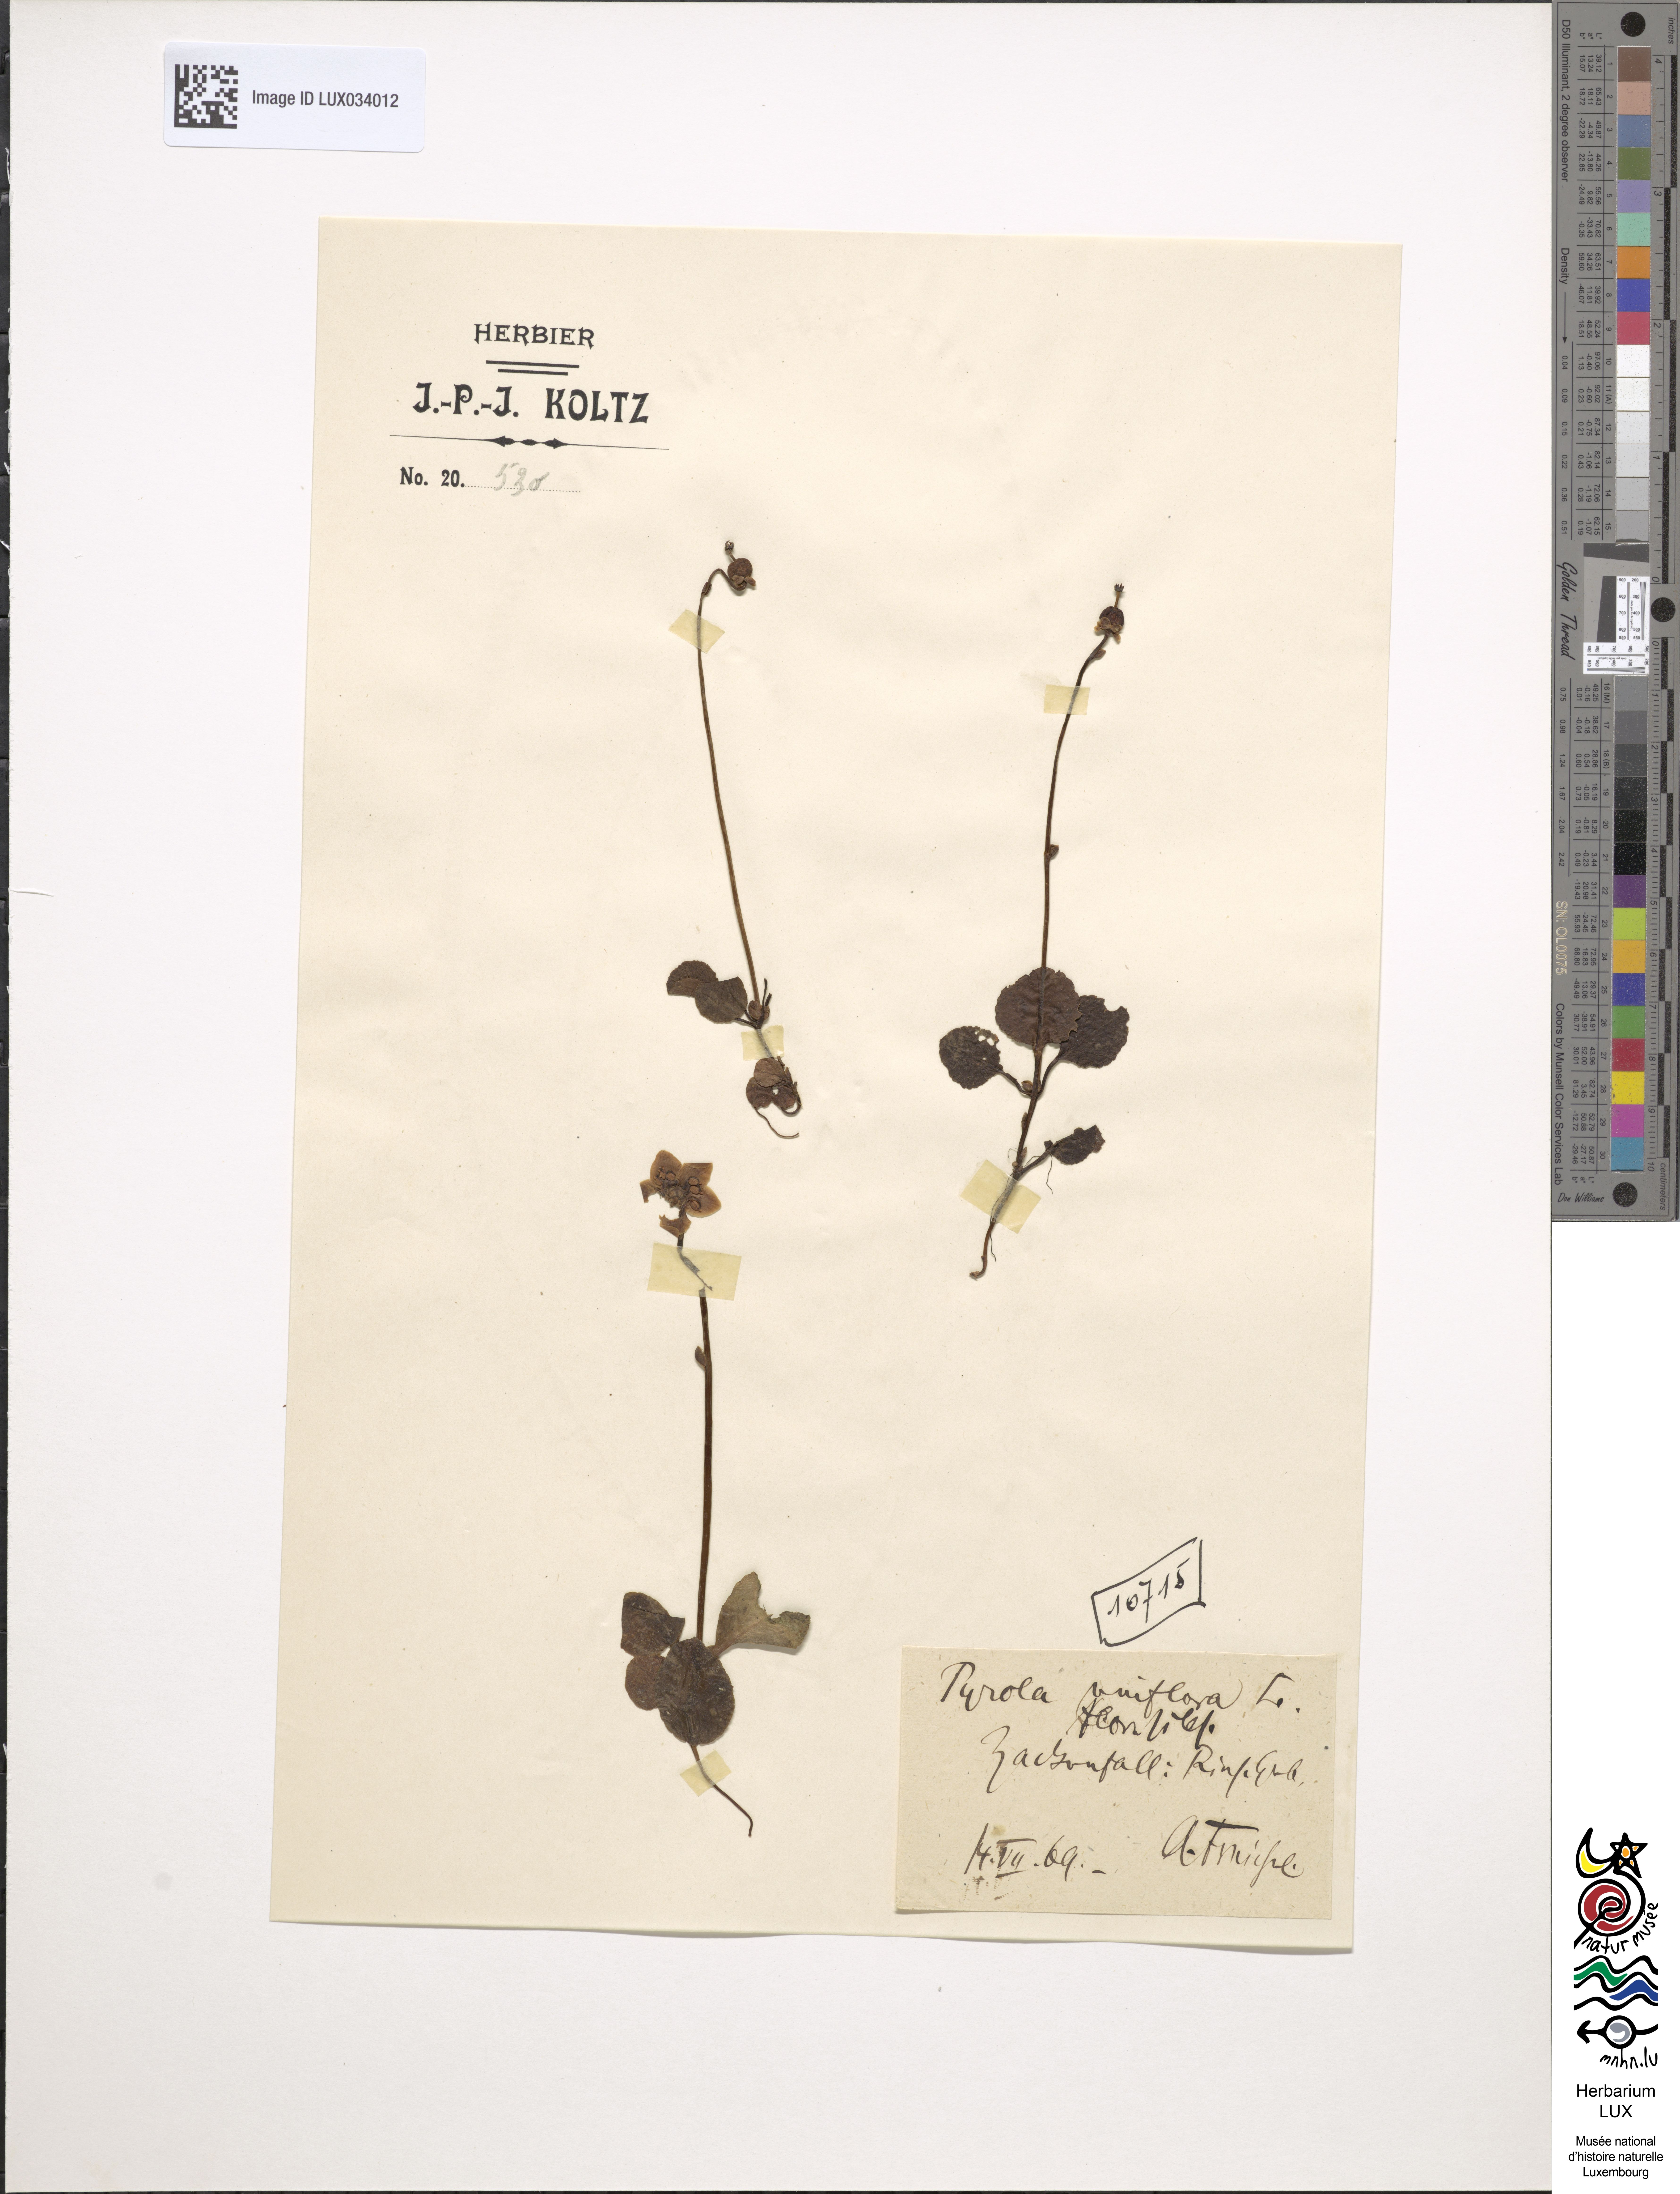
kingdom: Plantae
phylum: Tracheophyta
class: Magnoliopsida
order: Ericales
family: Ericaceae
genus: Moneses
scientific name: Moneses uniflora
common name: One-flowered wintergreen
